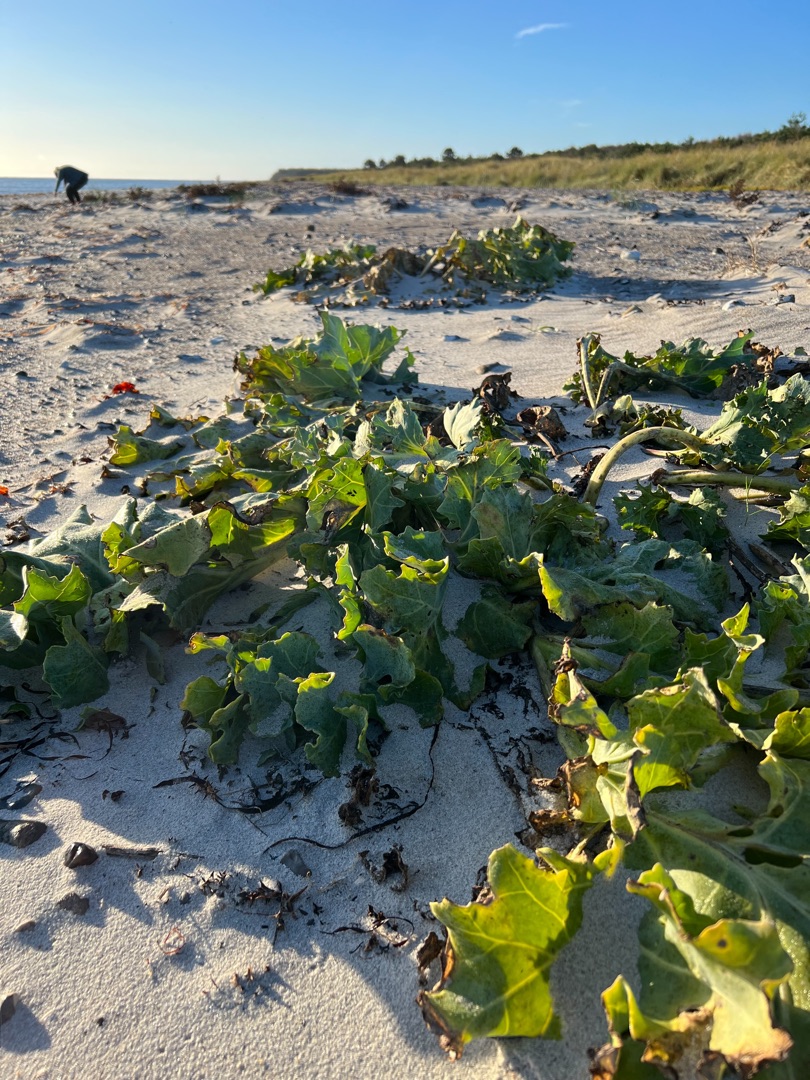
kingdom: Plantae
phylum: Tracheophyta
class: Magnoliopsida
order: Brassicales
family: Brassicaceae
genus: Crambe
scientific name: Crambe maritima
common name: Strandkål
